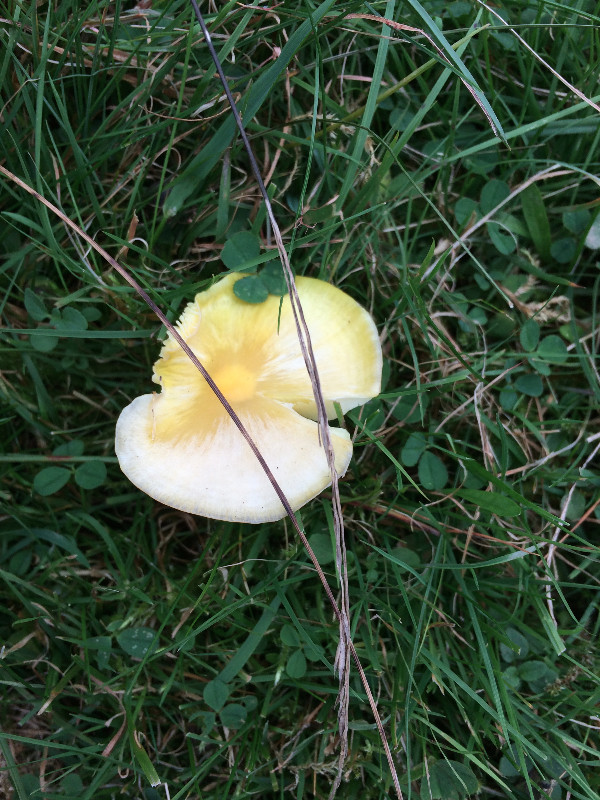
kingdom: Fungi
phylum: Basidiomycota
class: Agaricomycetes
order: Agaricales
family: Hygrophoraceae
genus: Hygrocybe
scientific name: Hygrocybe chlorophana
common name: gul vokshat
